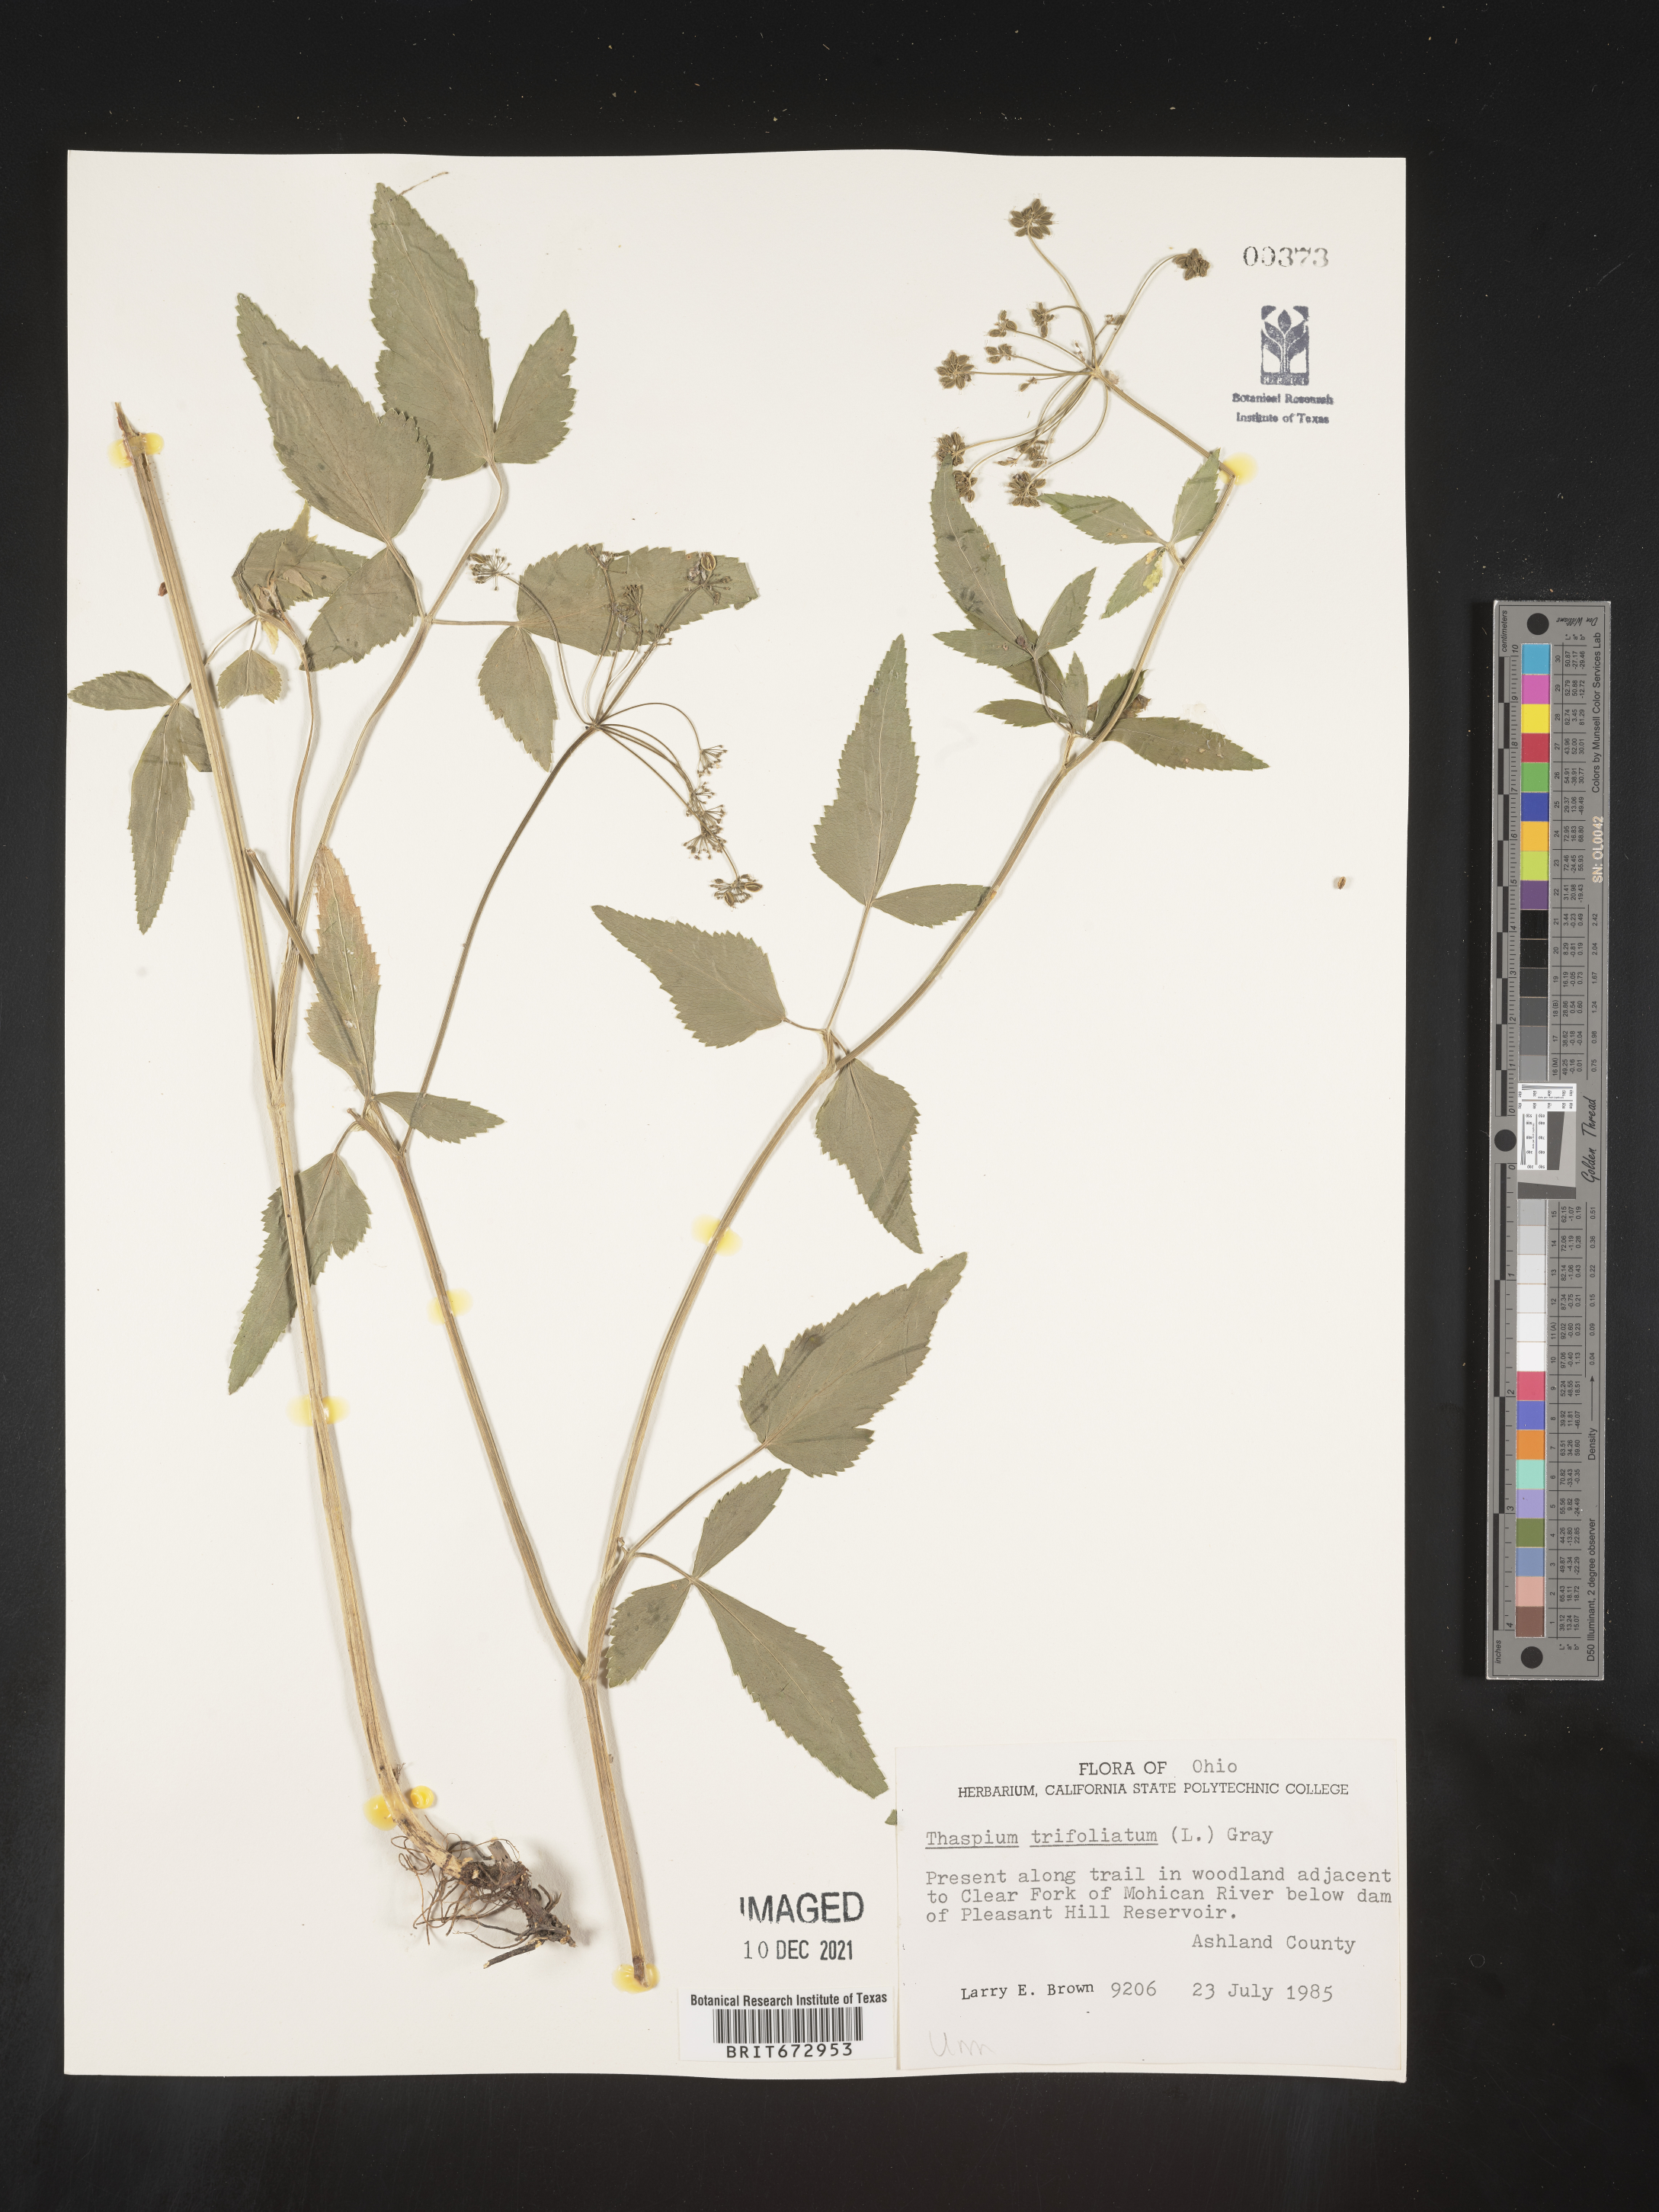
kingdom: Plantae
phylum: Tracheophyta
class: Magnoliopsida
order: Apiales
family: Apiaceae
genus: Thaspium
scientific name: Thaspium
